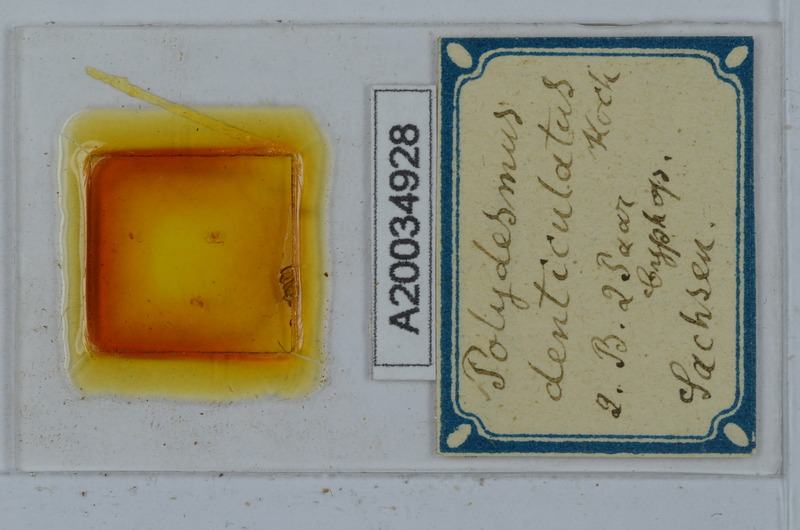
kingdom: Animalia
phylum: Arthropoda
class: Diplopoda
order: Polydesmida
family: Polydesmidae
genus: Polydesmus
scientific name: Polydesmus denticulatus
